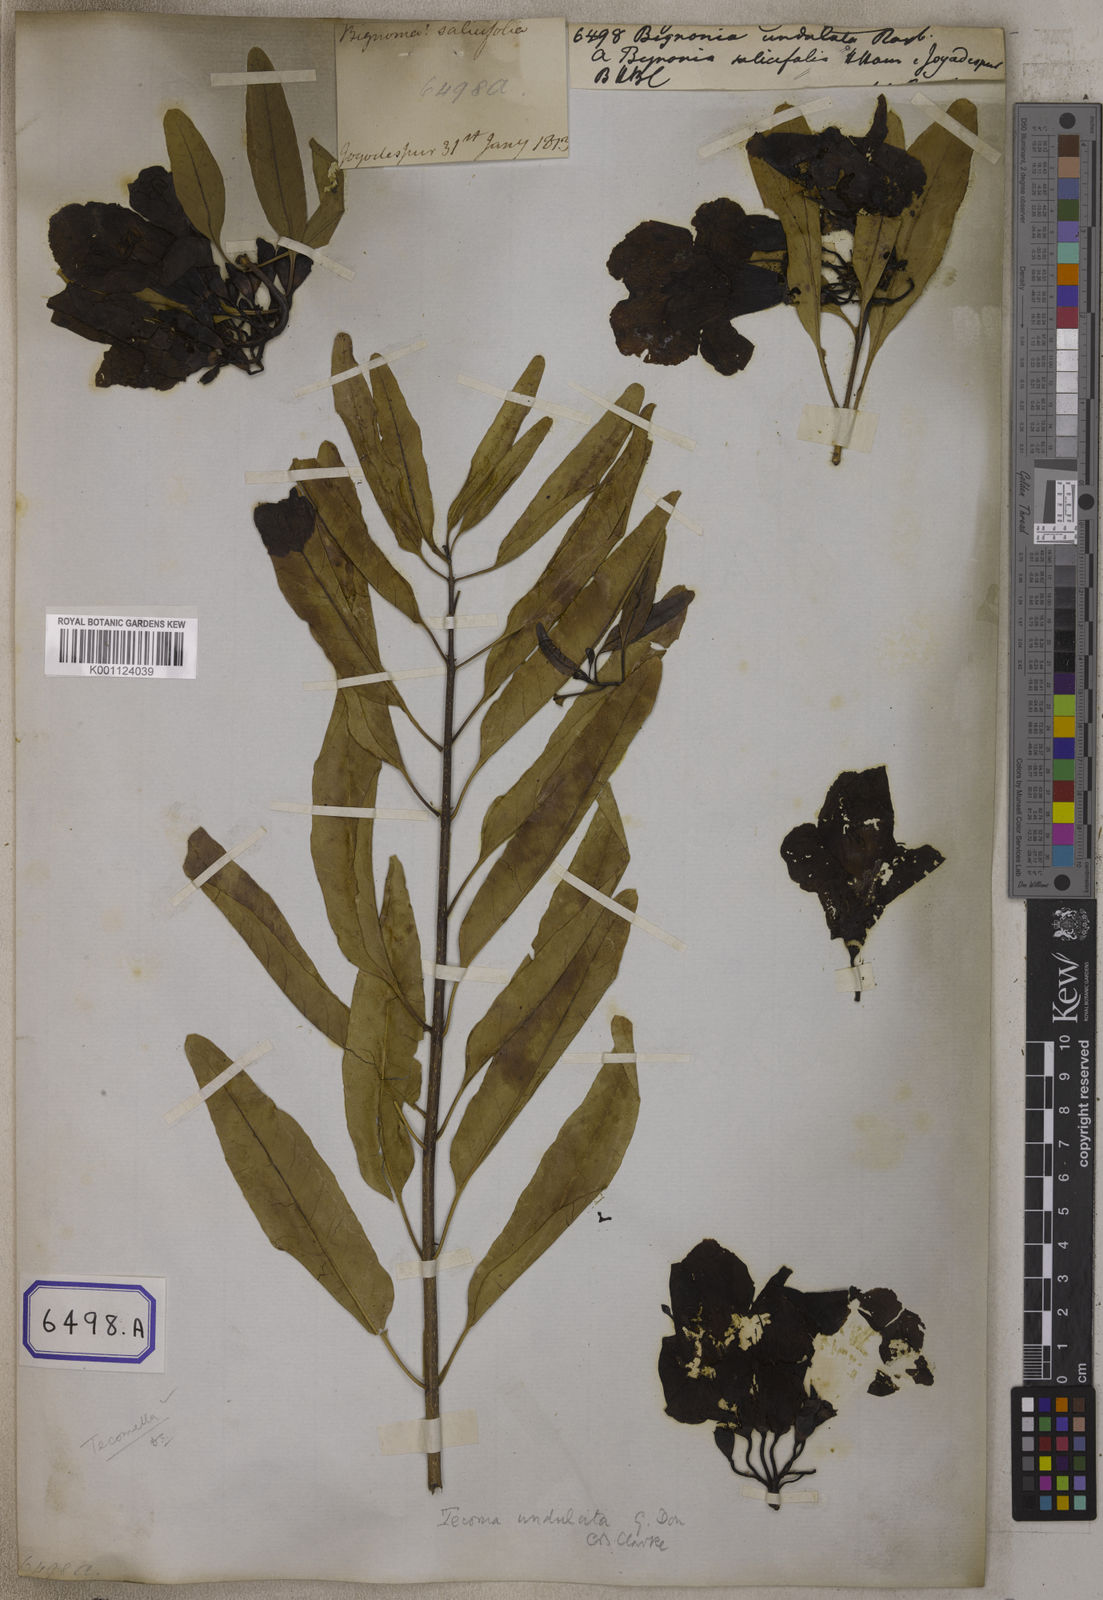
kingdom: Plantae
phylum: Tracheophyta
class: Magnoliopsida
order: Lamiales
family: Bignoniaceae
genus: Tecomella
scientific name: Tecomella undulata
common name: Desert teak
